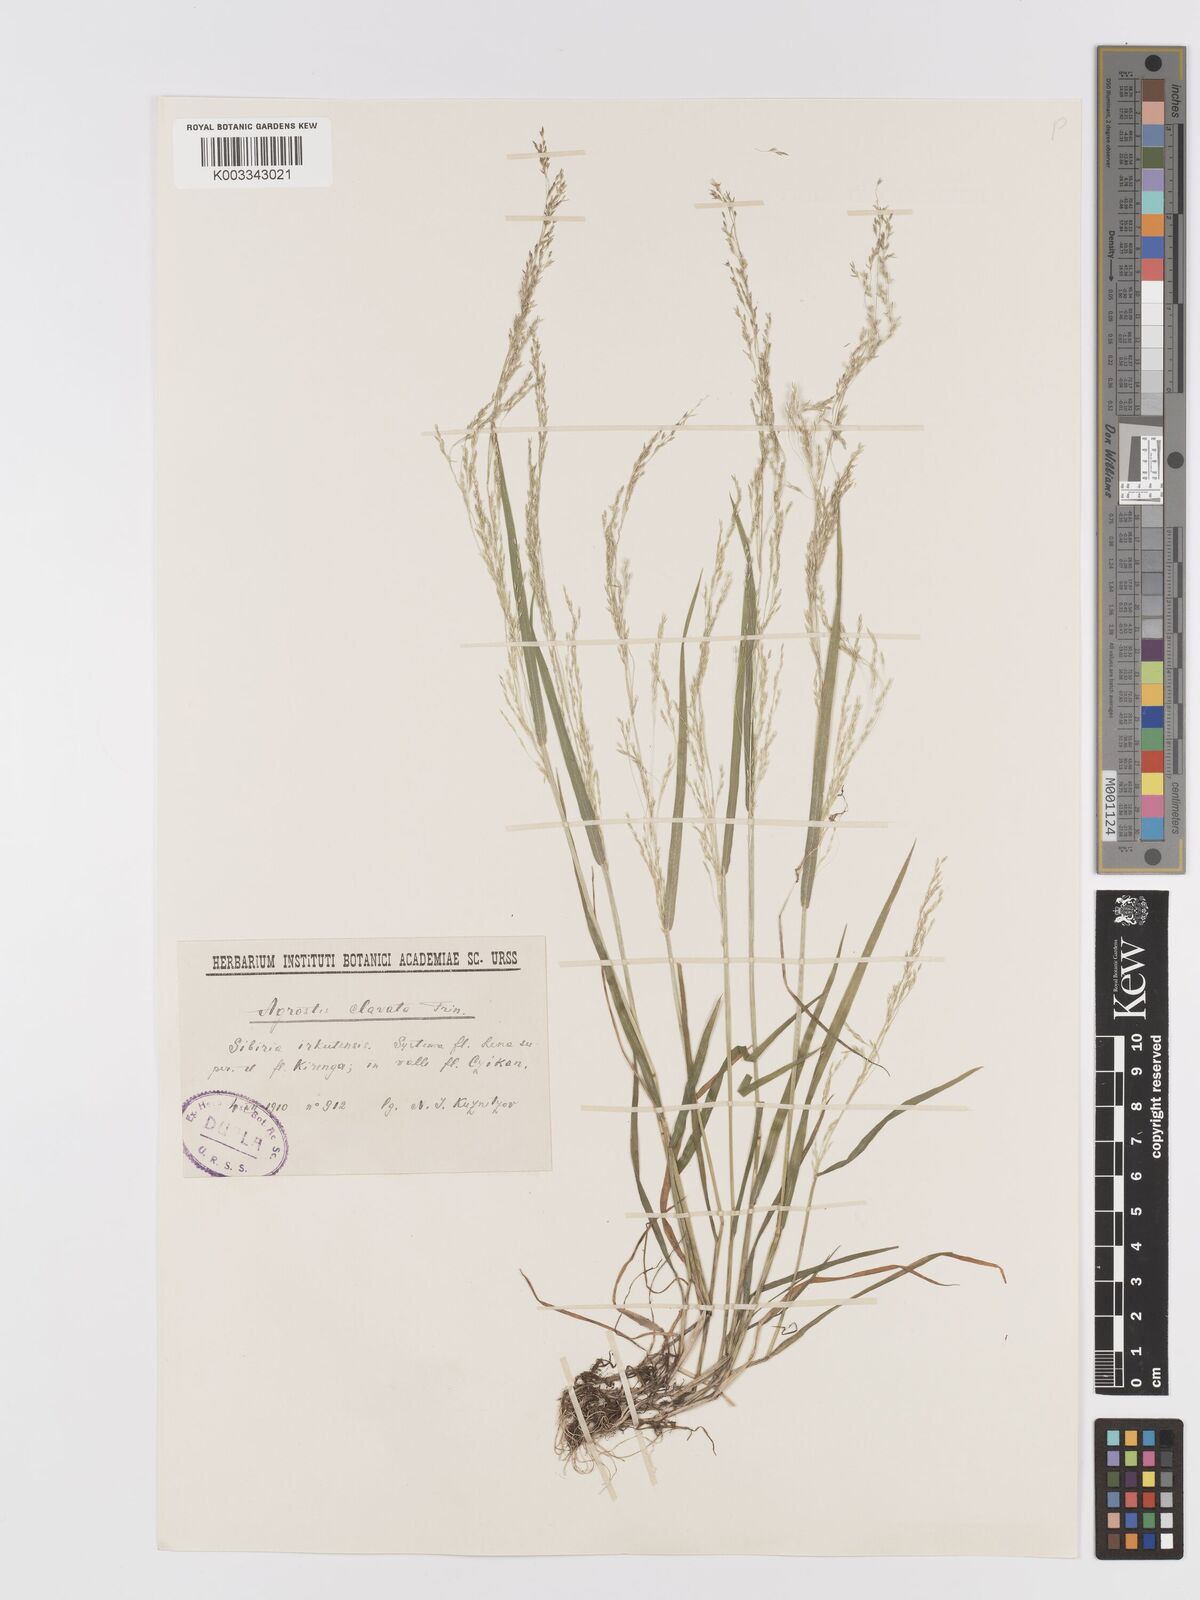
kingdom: Plantae
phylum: Tracheophyta
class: Liliopsida
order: Poales
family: Poaceae
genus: Agrostis
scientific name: Agrostis clavata
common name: Clavate bent
